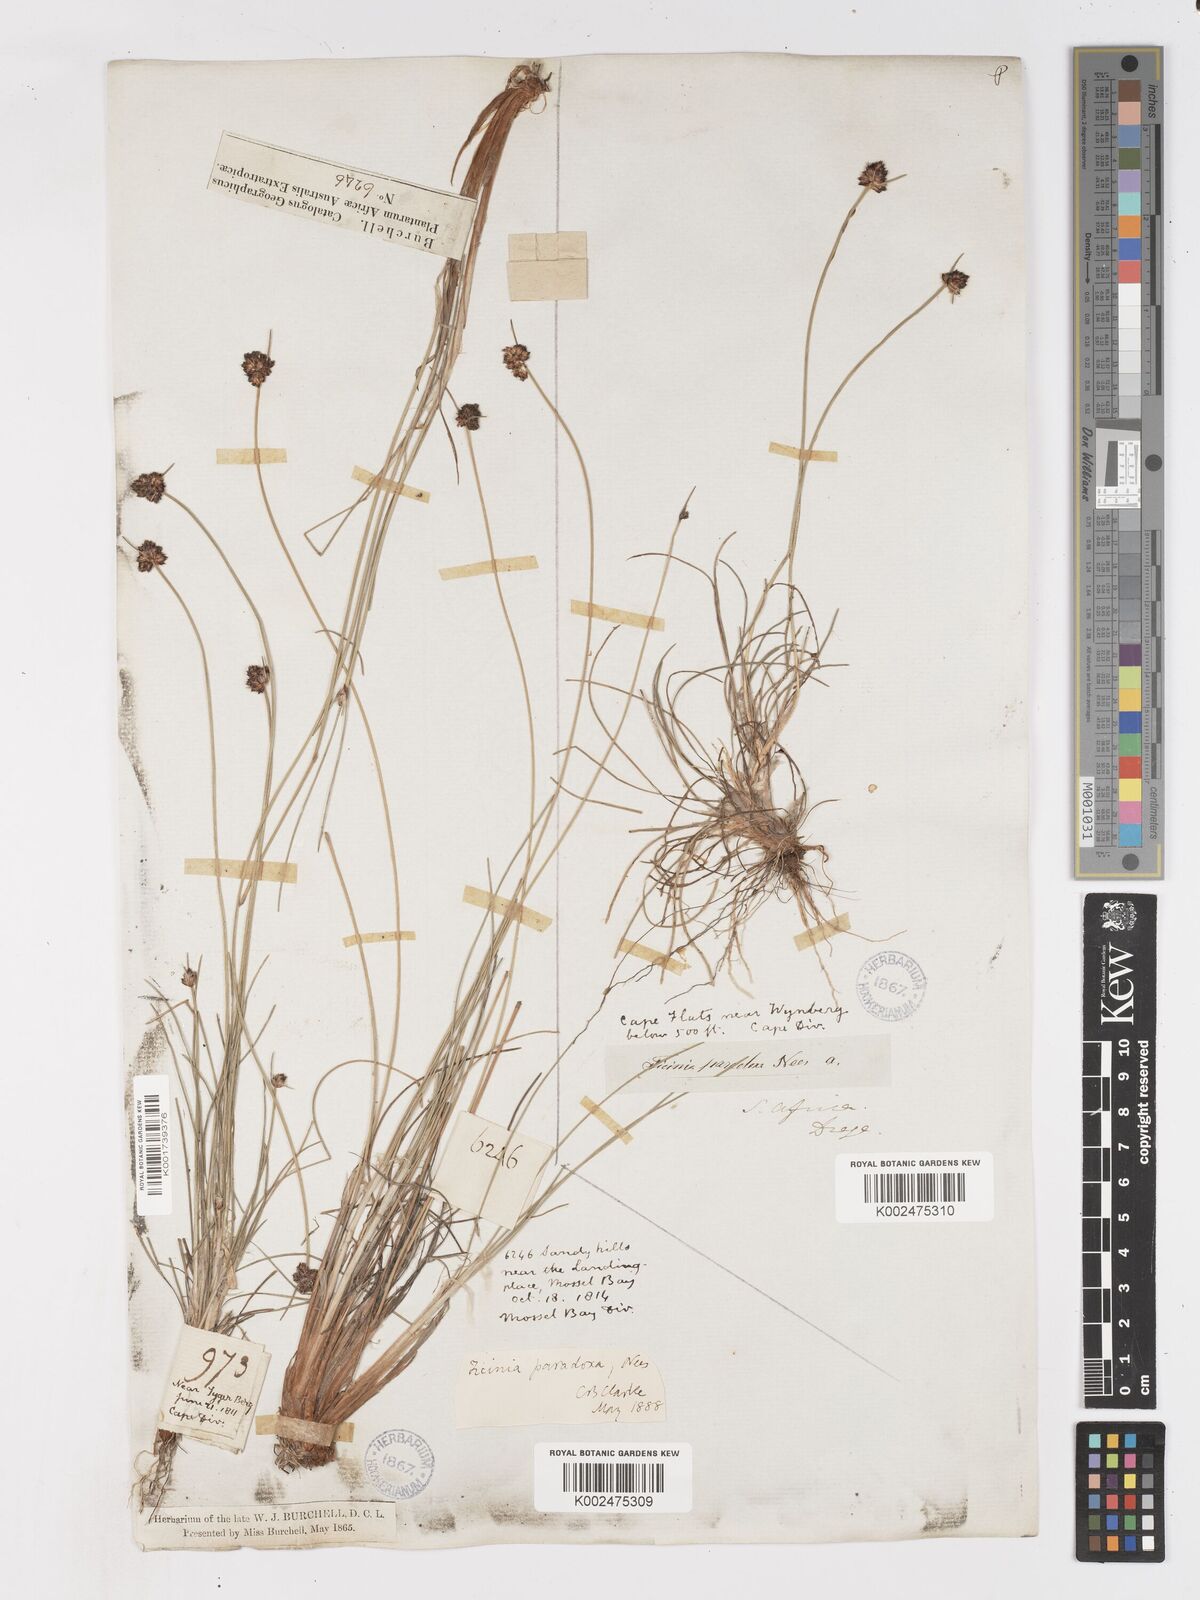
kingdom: Plantae
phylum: Tracheophyta
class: Liliopsida
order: Poales
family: Cyperaceae
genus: Ficinia
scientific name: Ficinia paradoxa
